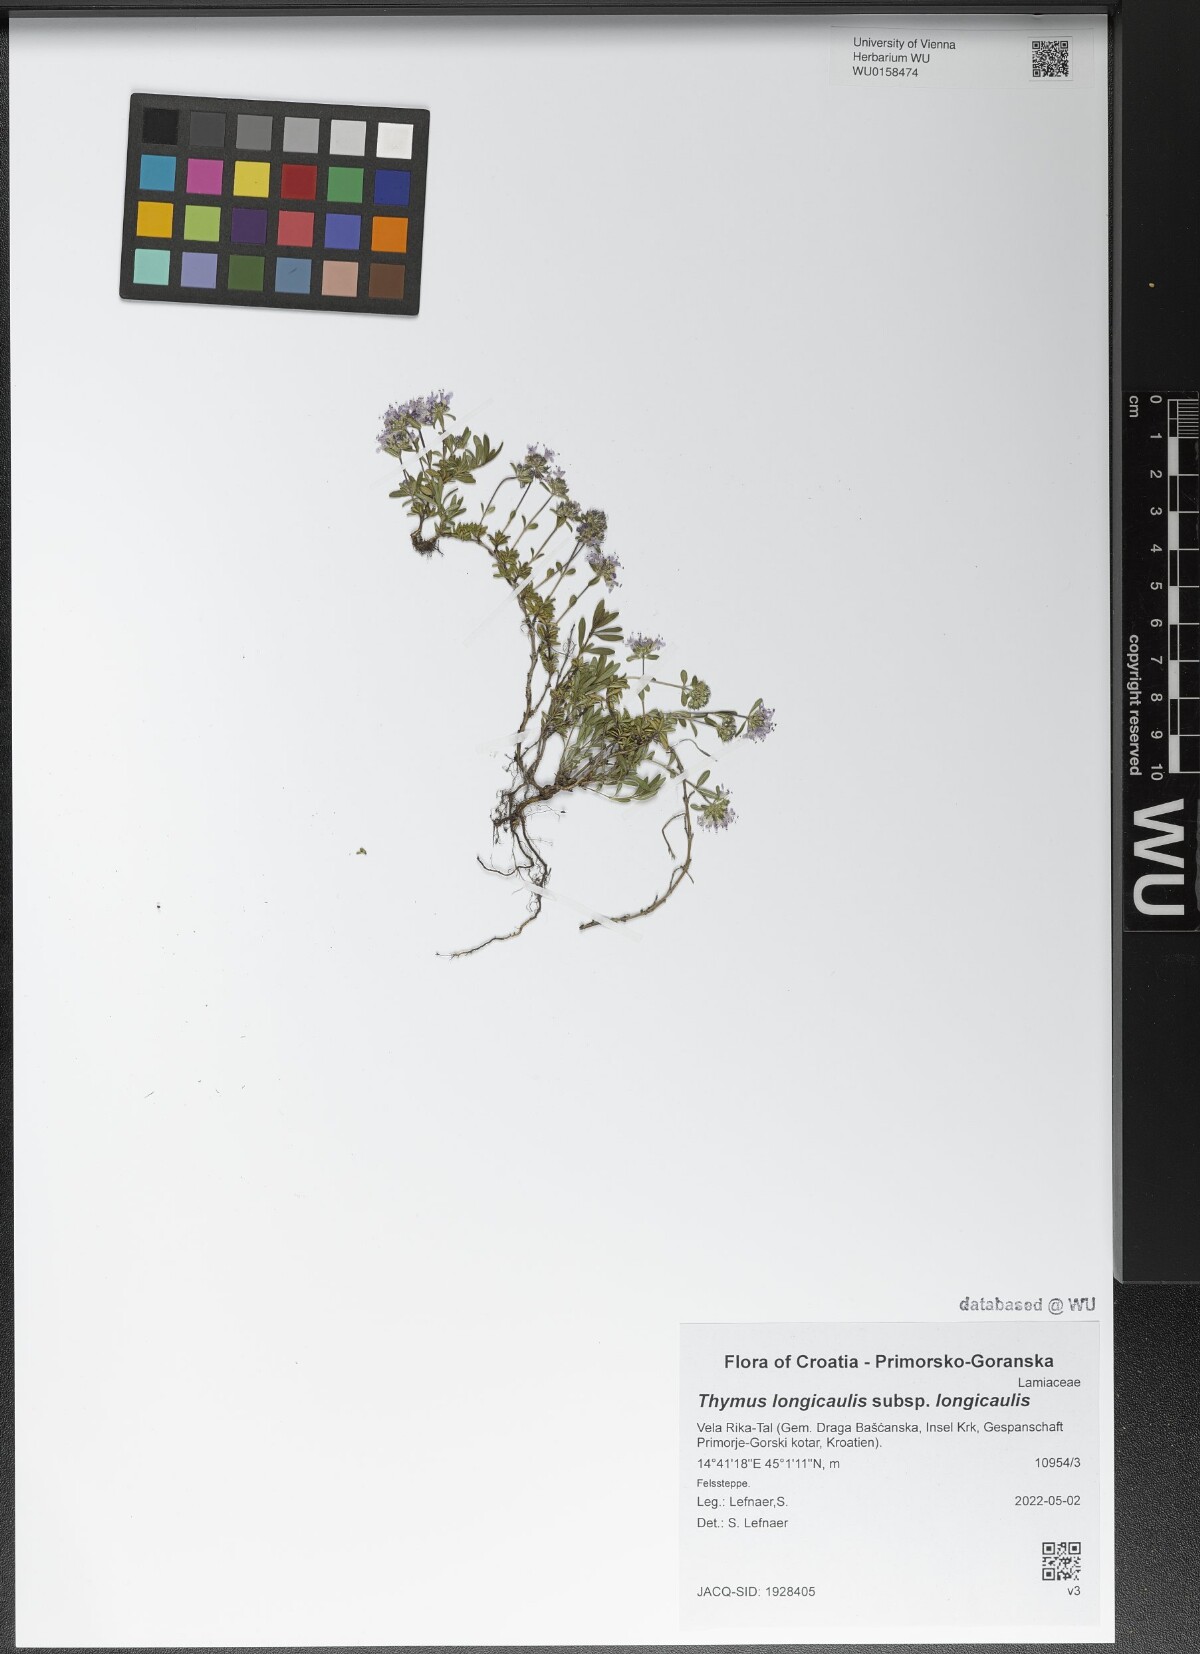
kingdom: Plantae
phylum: Tracheophyta
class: Magnoliopsida
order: Lamiales
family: Lamiaceae
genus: Thymus
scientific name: Thymus longicaulis
